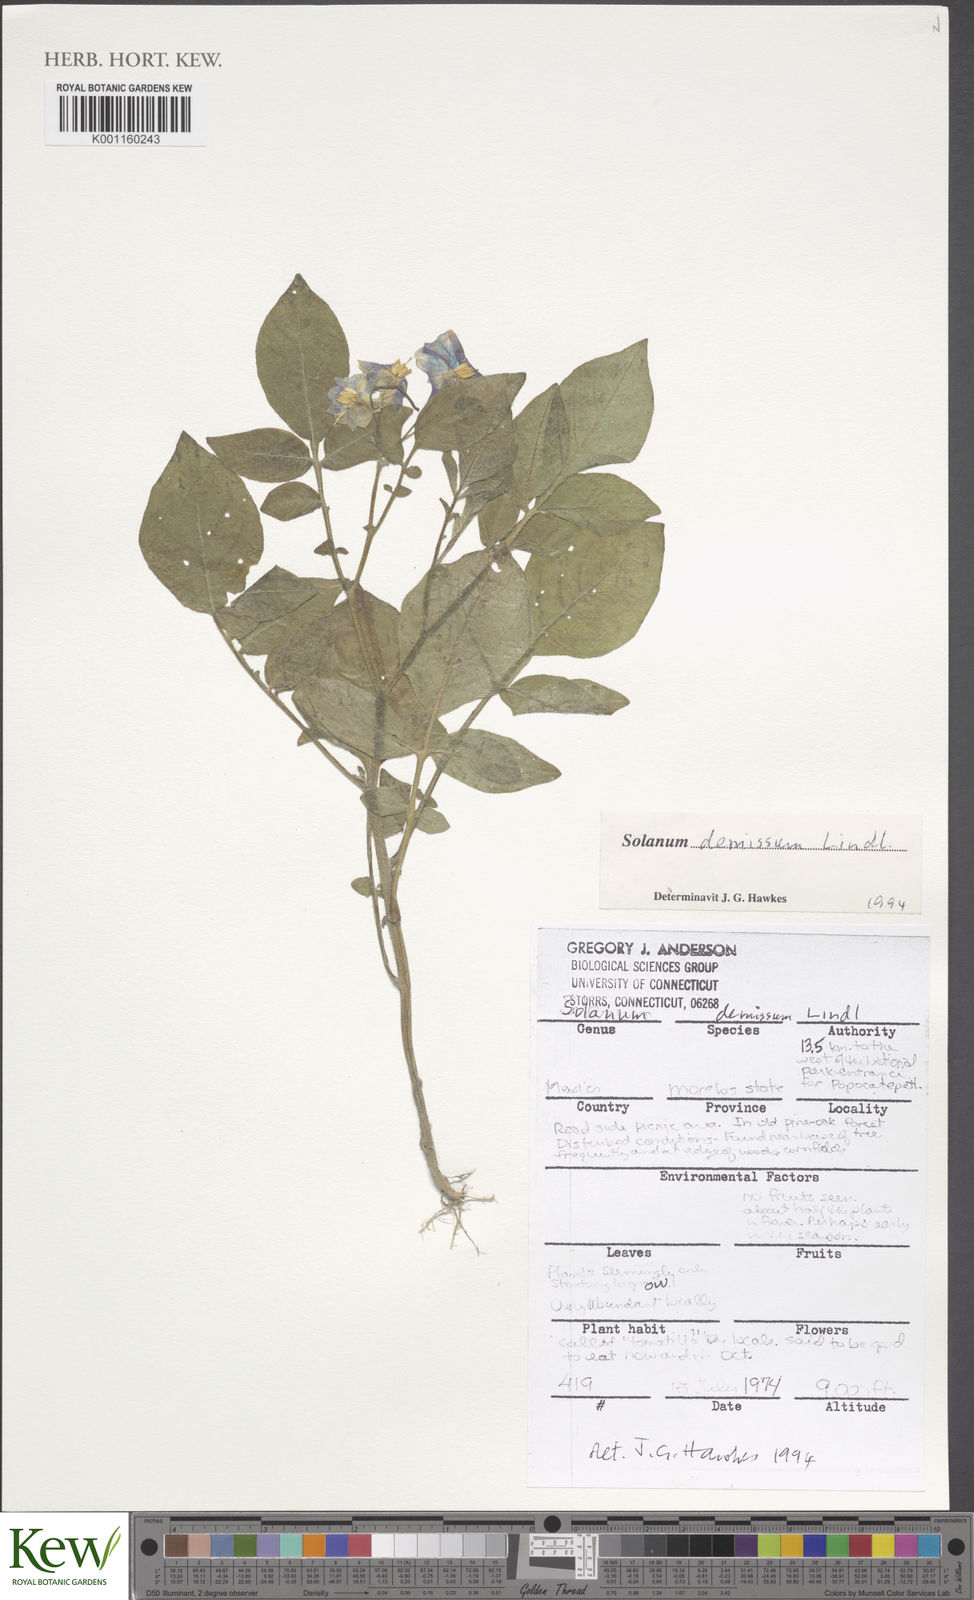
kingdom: Plantae
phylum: Tracheophyta
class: Magnoliopsida
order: Solanales
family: Solanaceae
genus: Solanum
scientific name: Solanum demissum
